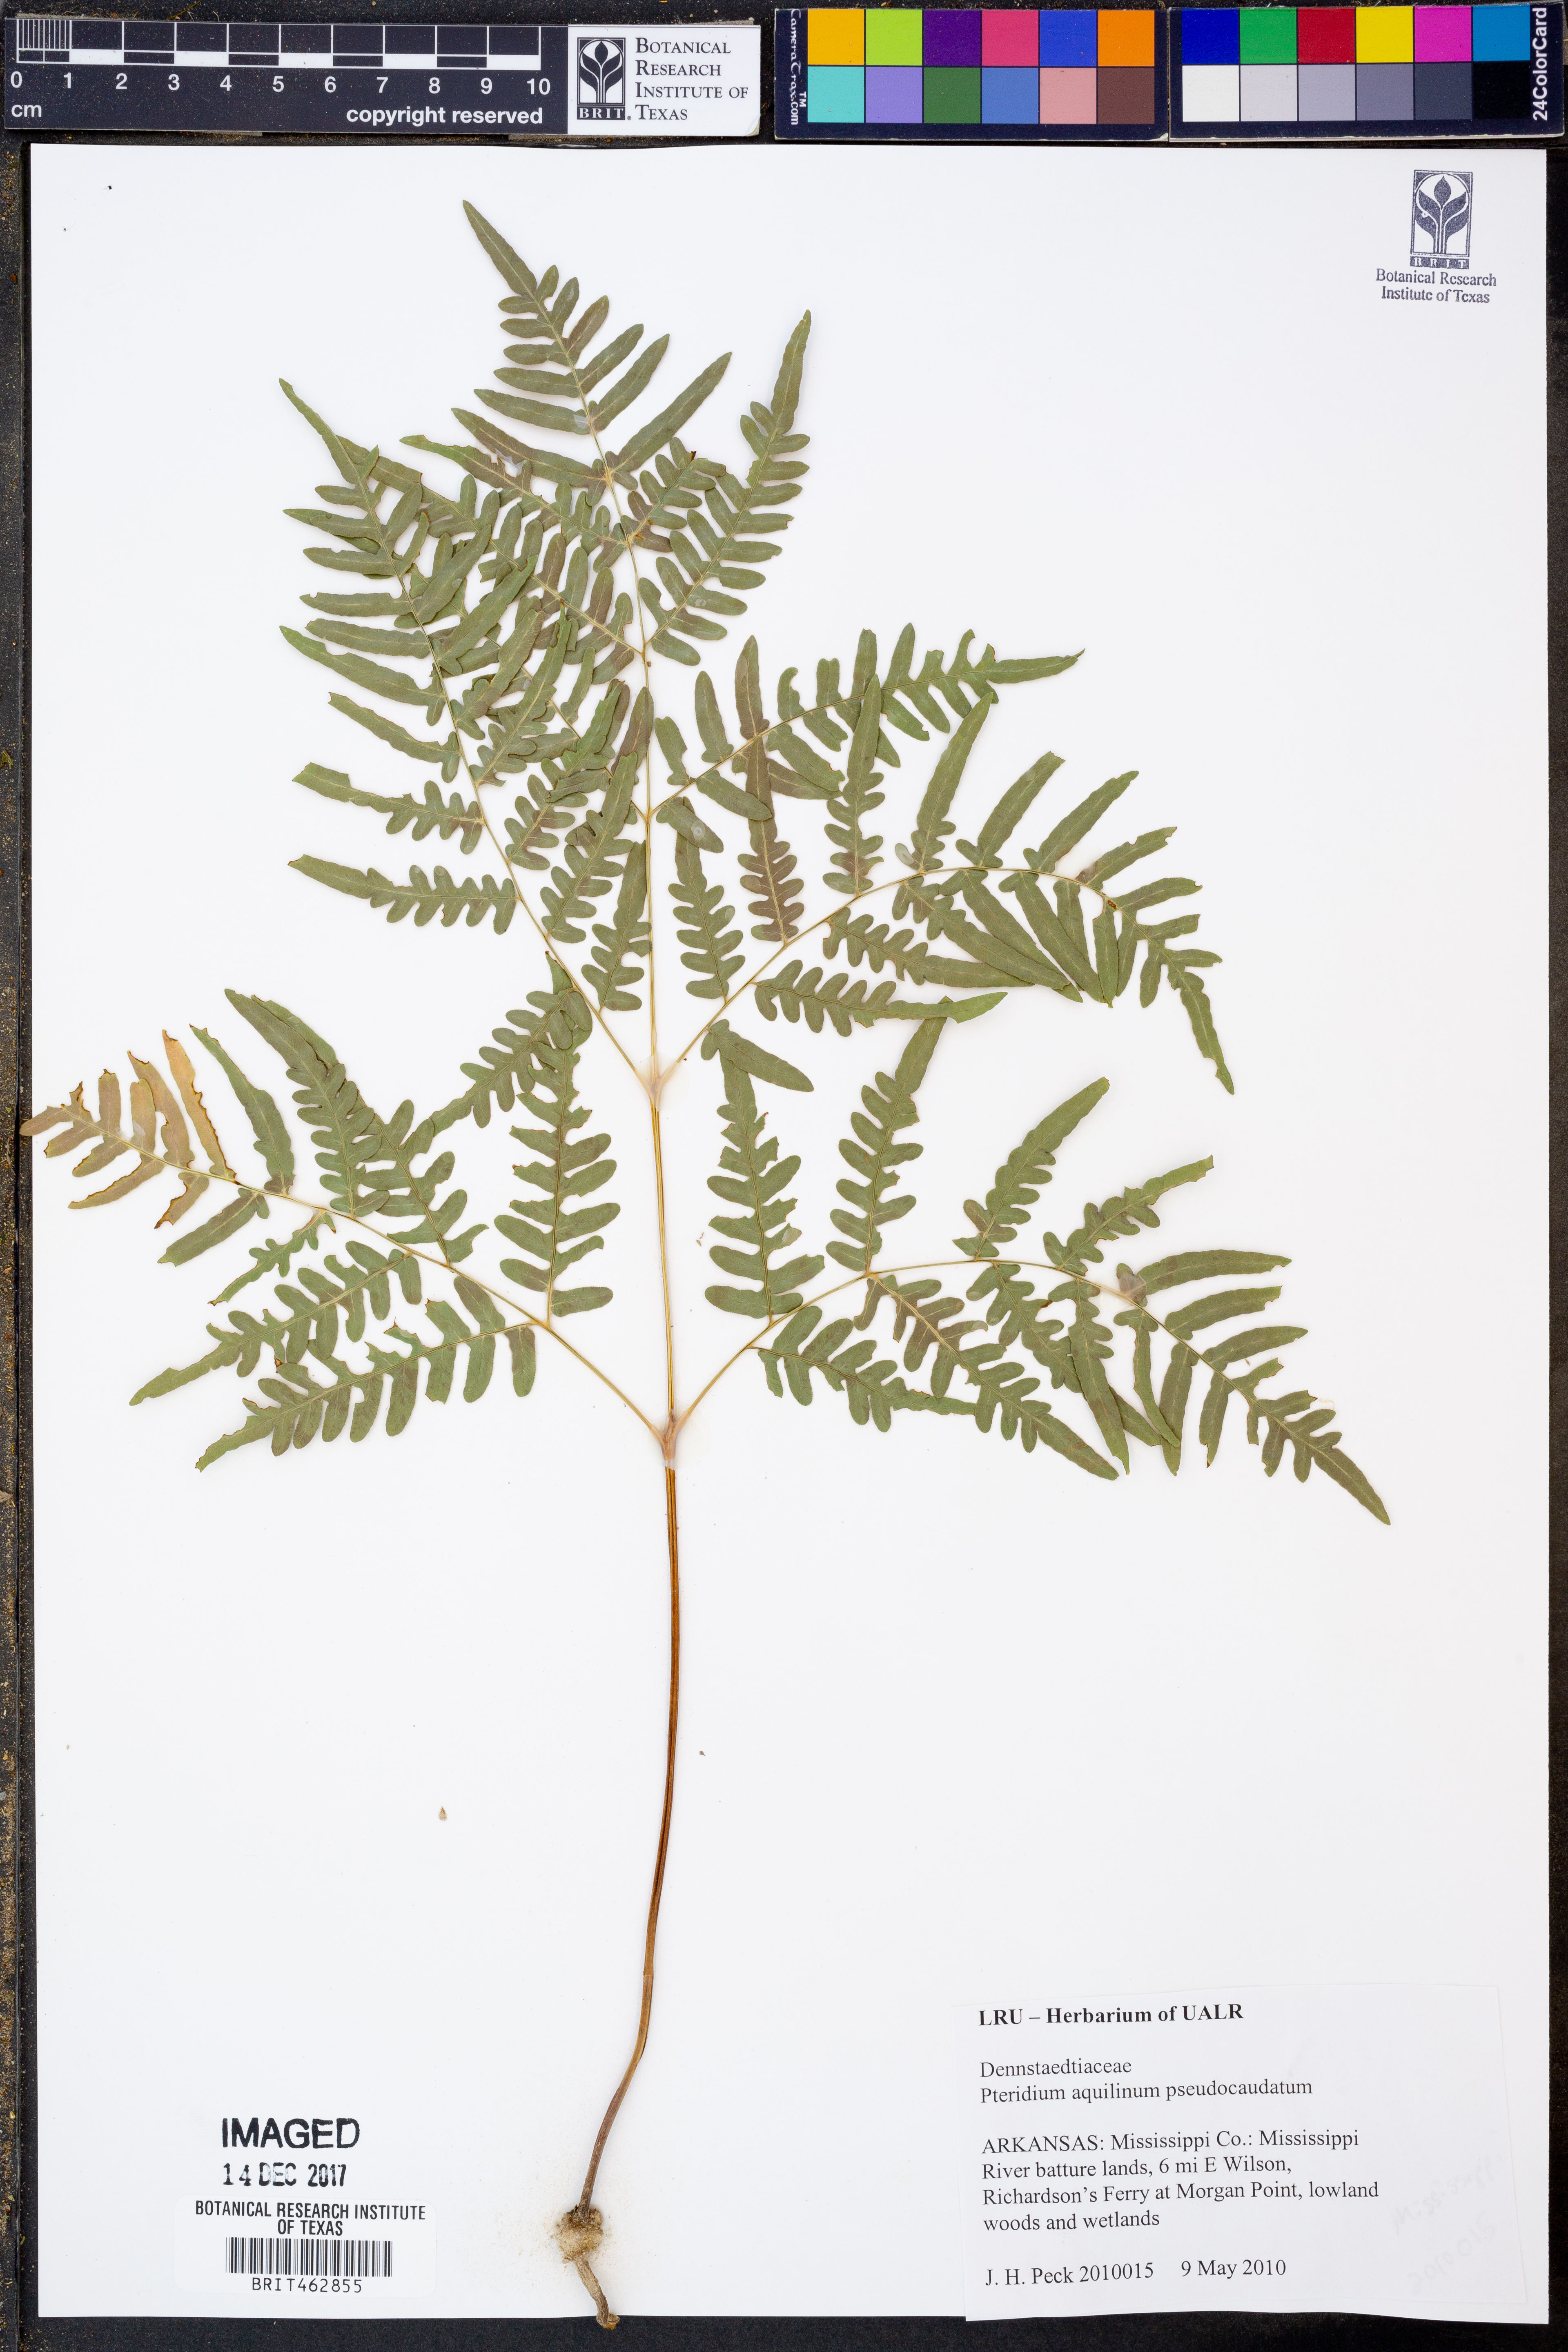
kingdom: Plantae
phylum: Tracheophyta
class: Polypodiopsida
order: Polypodiales
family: Dennstaedtiaceae
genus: Pteridium
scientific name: Pteridium aquilinum
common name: Bracken
